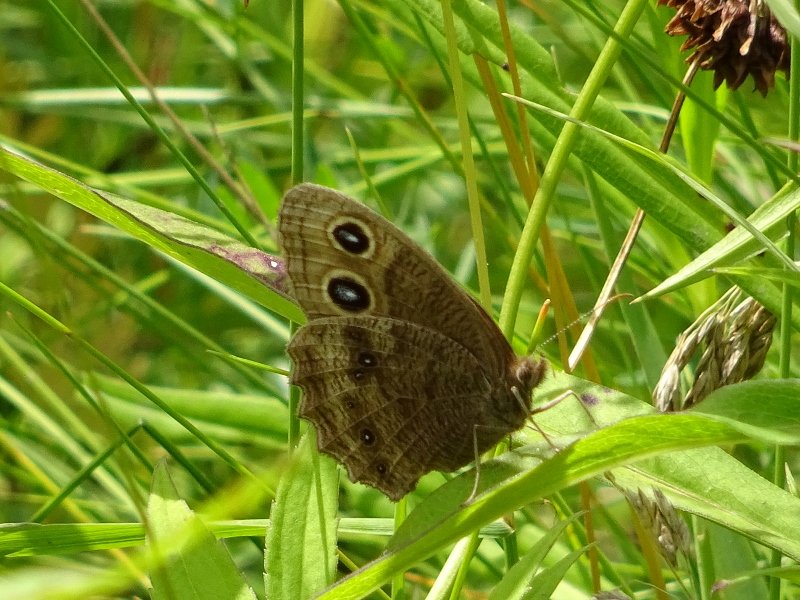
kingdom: Animalia
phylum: Arthropoda
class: Insecta
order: Lepidoptera
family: Nymphalidae
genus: Cercyonis
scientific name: Cercyonis pegala
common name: Common Wood-Nymph
